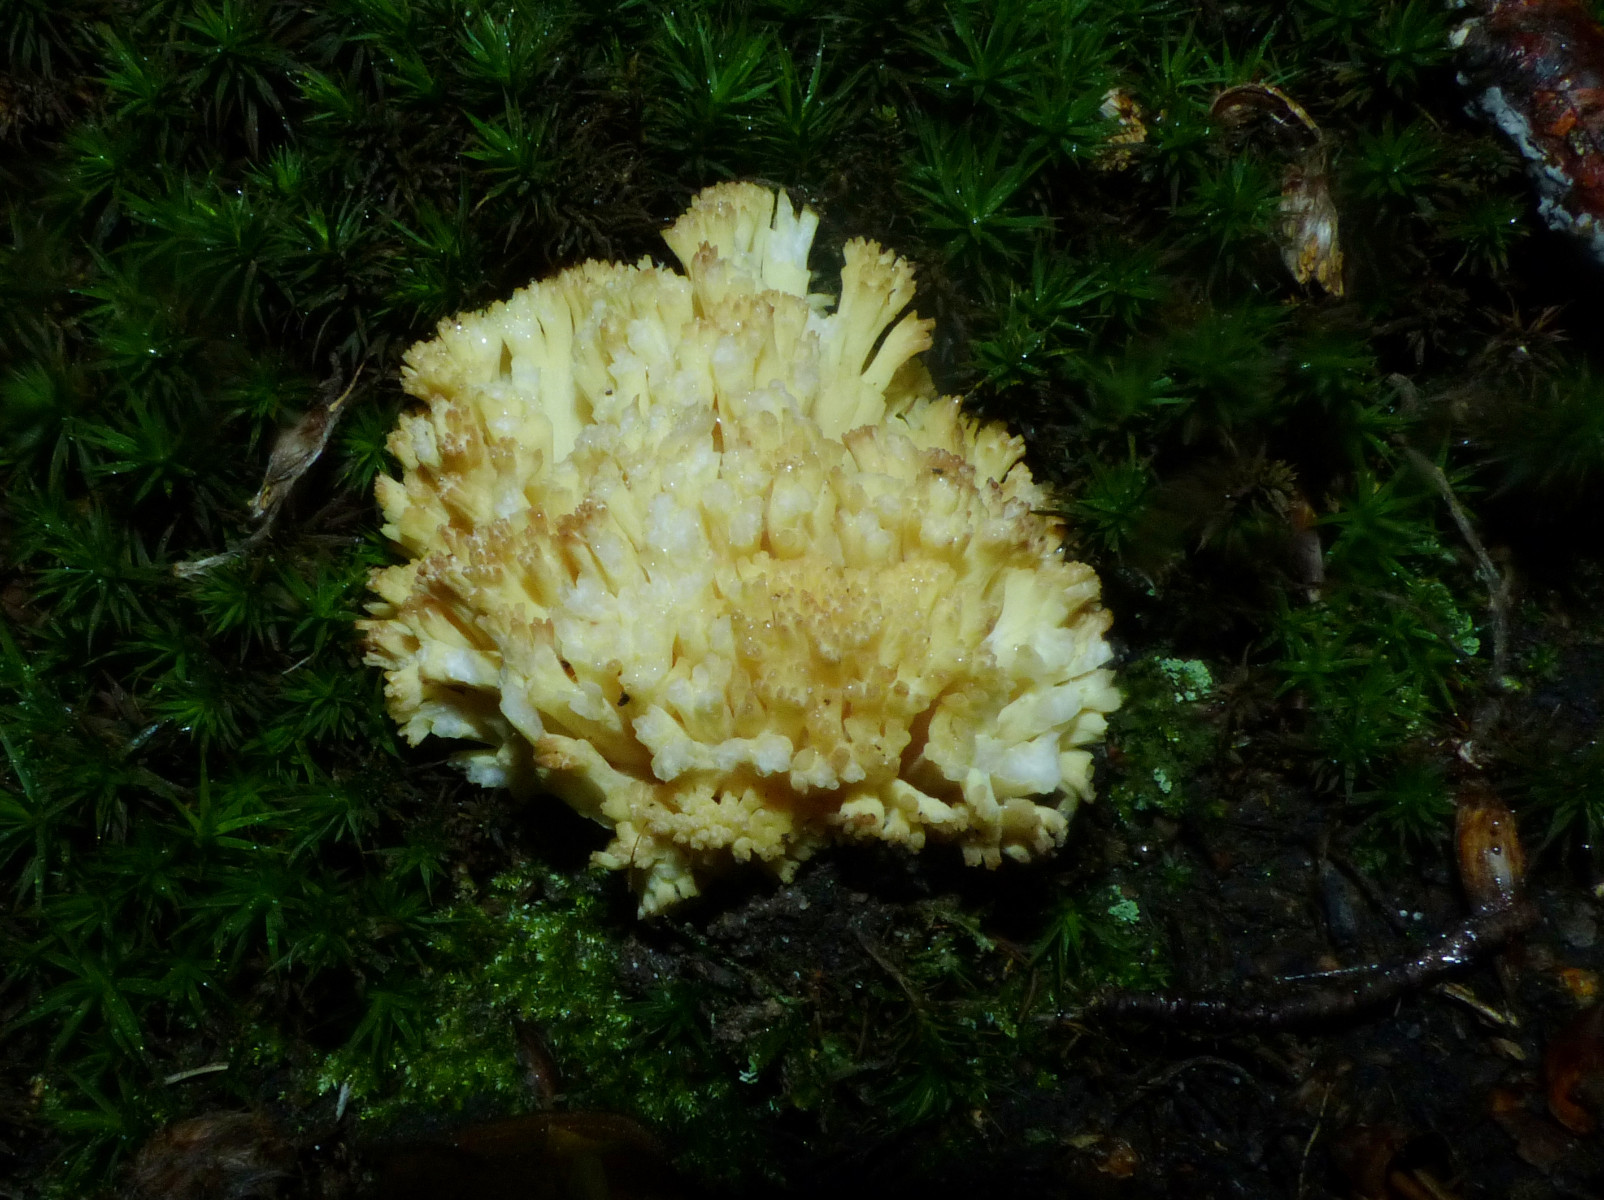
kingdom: Fungi
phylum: Basidiomycota
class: Agaricomycetes
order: Gomphales
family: Gomphaceae
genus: Ramaria
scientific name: Ramaria sanguinea
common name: blodplettet koralsvamp
